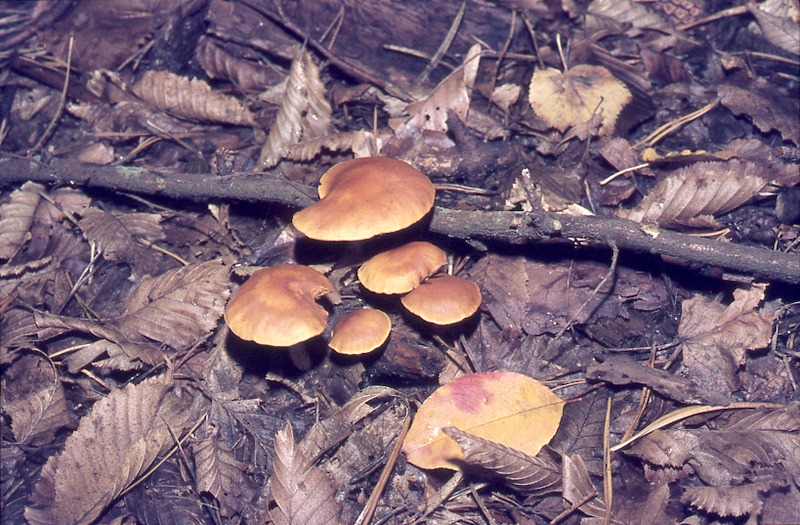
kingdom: Fungi
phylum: Basidiomycota
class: Agaricomycetes
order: Agaricales
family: Hymenogastraceae
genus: Gymnopilus
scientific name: Gymnopilus penetrans
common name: Common rustgill
